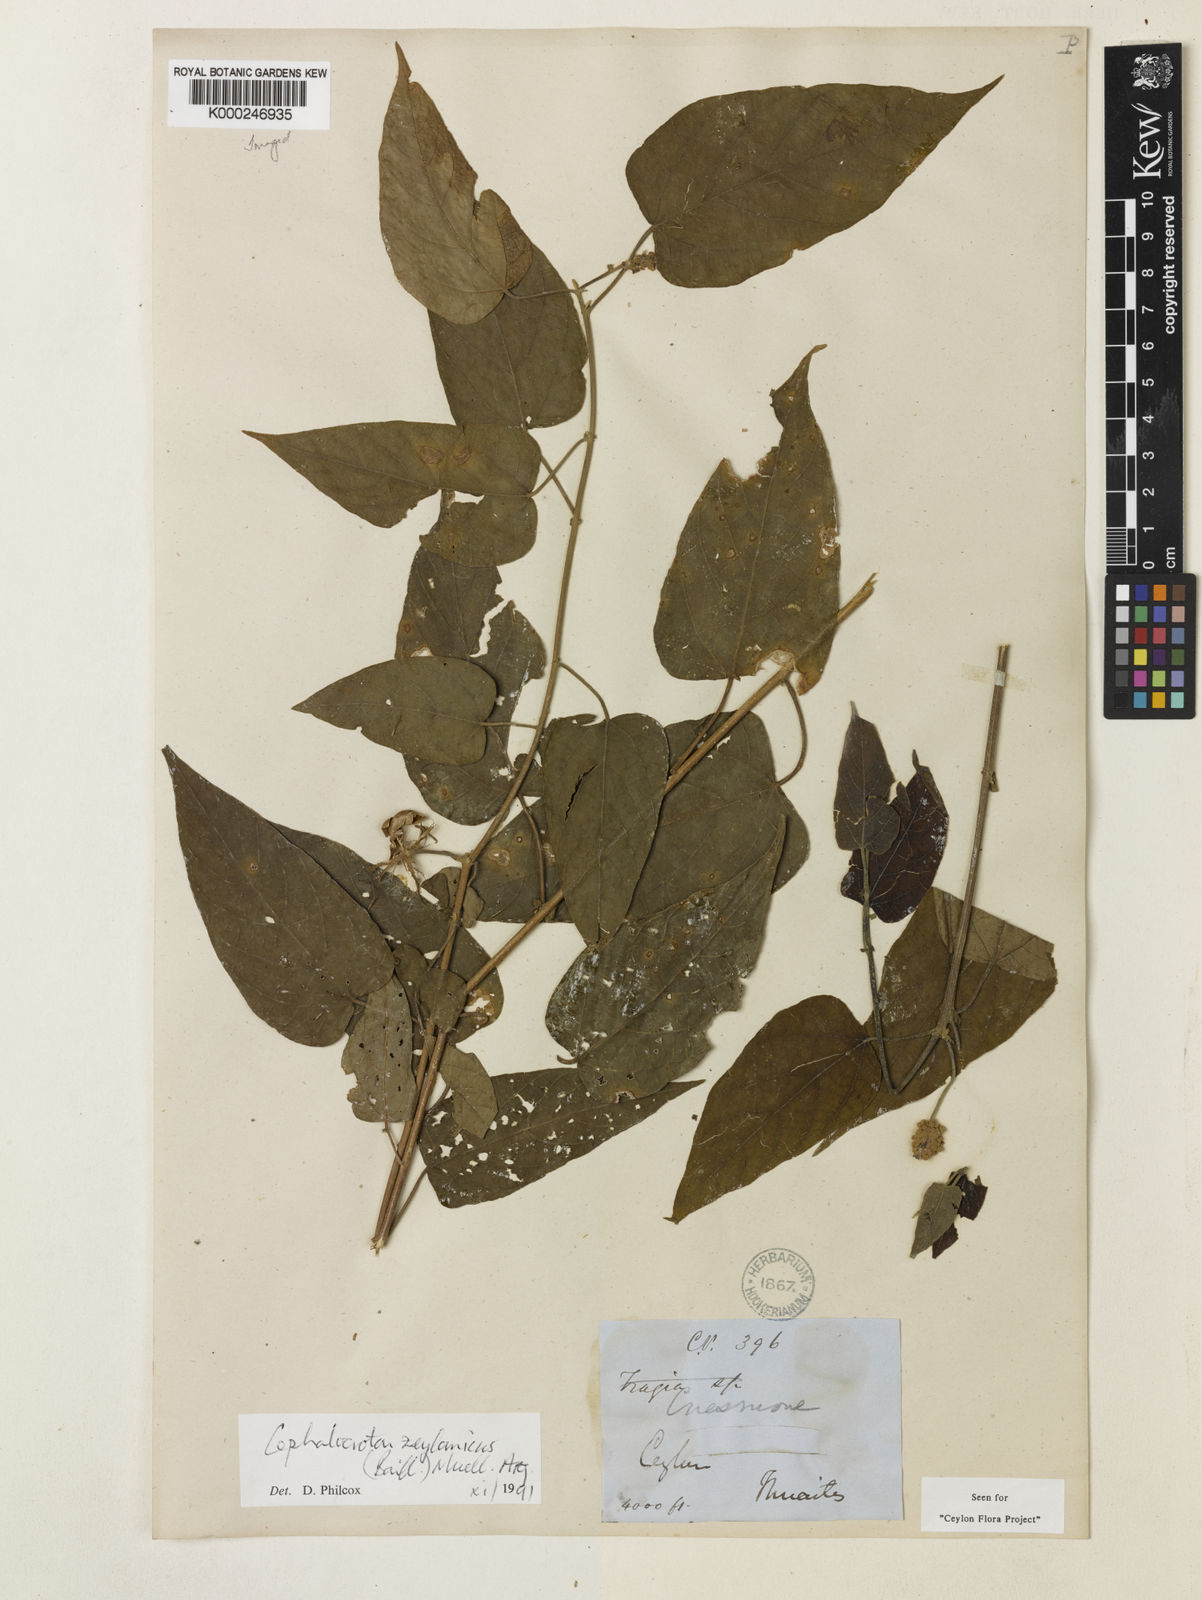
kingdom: Plantae
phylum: Tracheophyta
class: Magnoliopsida
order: Malpighiales
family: Euphorbiaceae
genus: Adenochlaena
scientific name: Adenochlaena zeylanica
